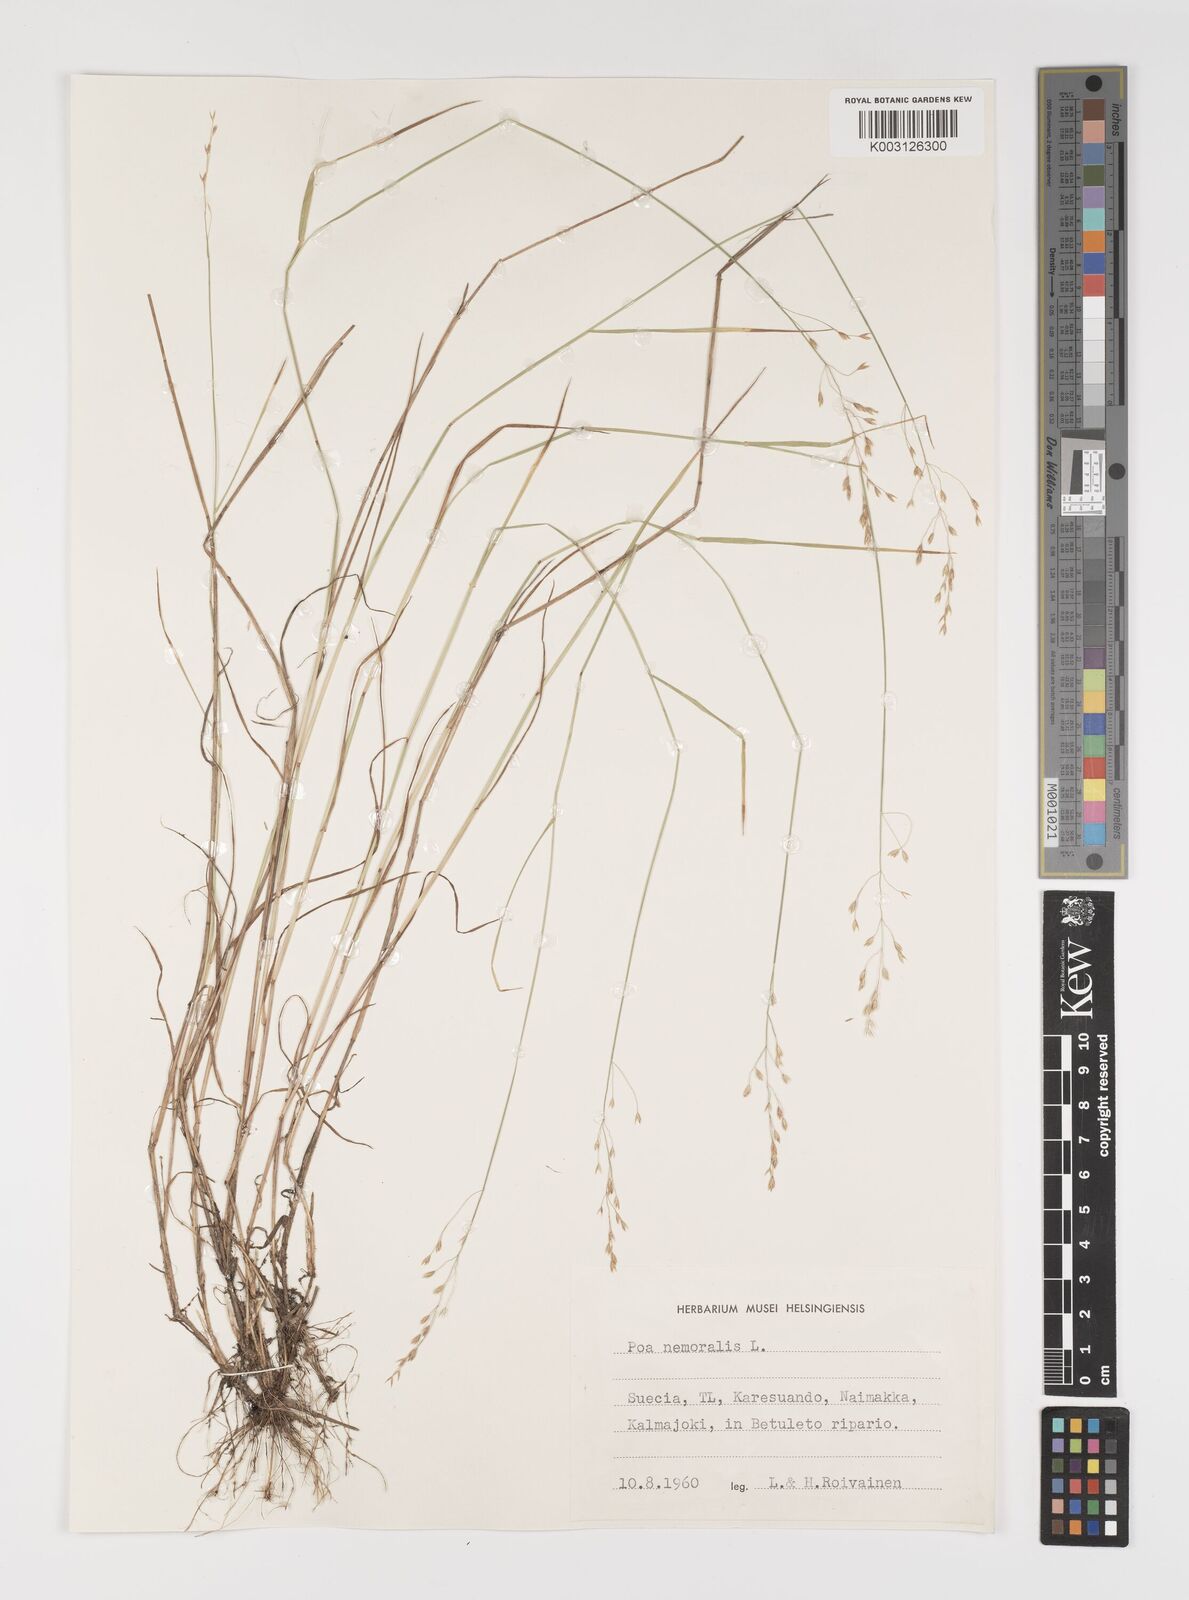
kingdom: Plantae
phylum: Tracheophyta
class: Liliopsida
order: Poales
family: Poaceae
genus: Poa
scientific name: Poa glauca
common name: Glaucous bluegrass
